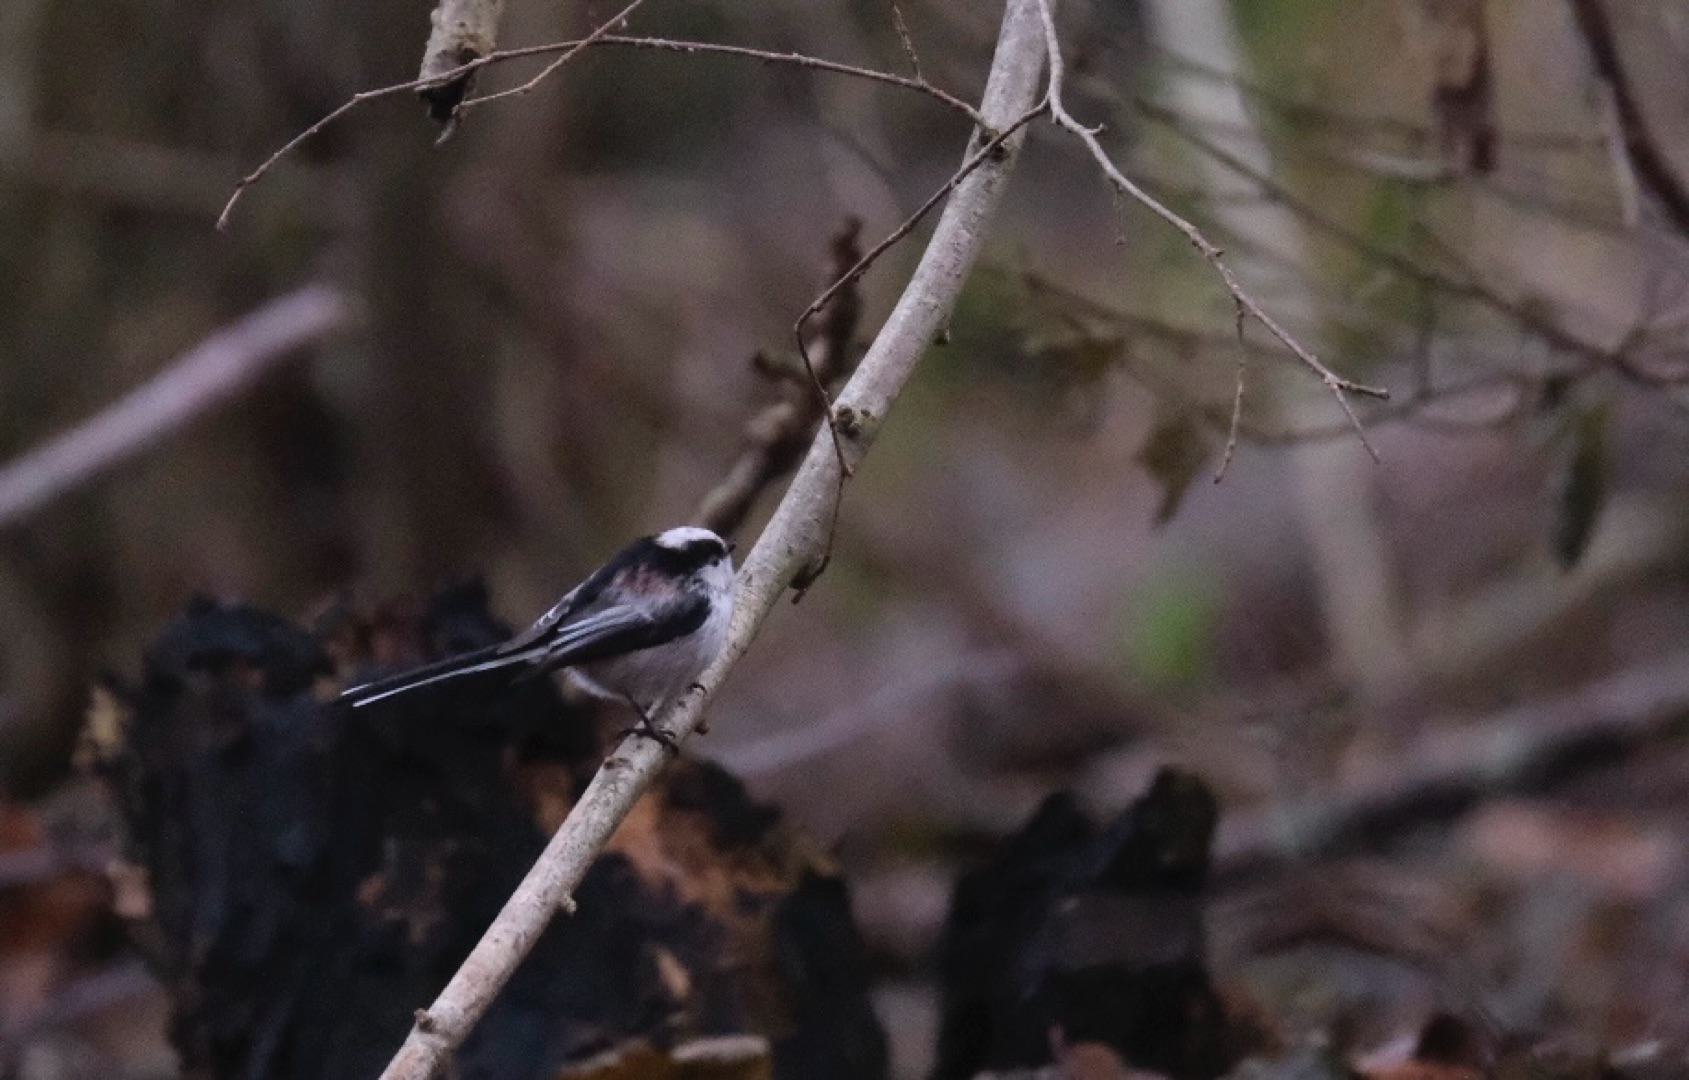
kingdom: Animalia
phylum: Chordata
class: Aves
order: Passeriformes
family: Aegithalidae
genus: Aegithalos
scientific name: Aegithalos caudatus
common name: Halemejse
